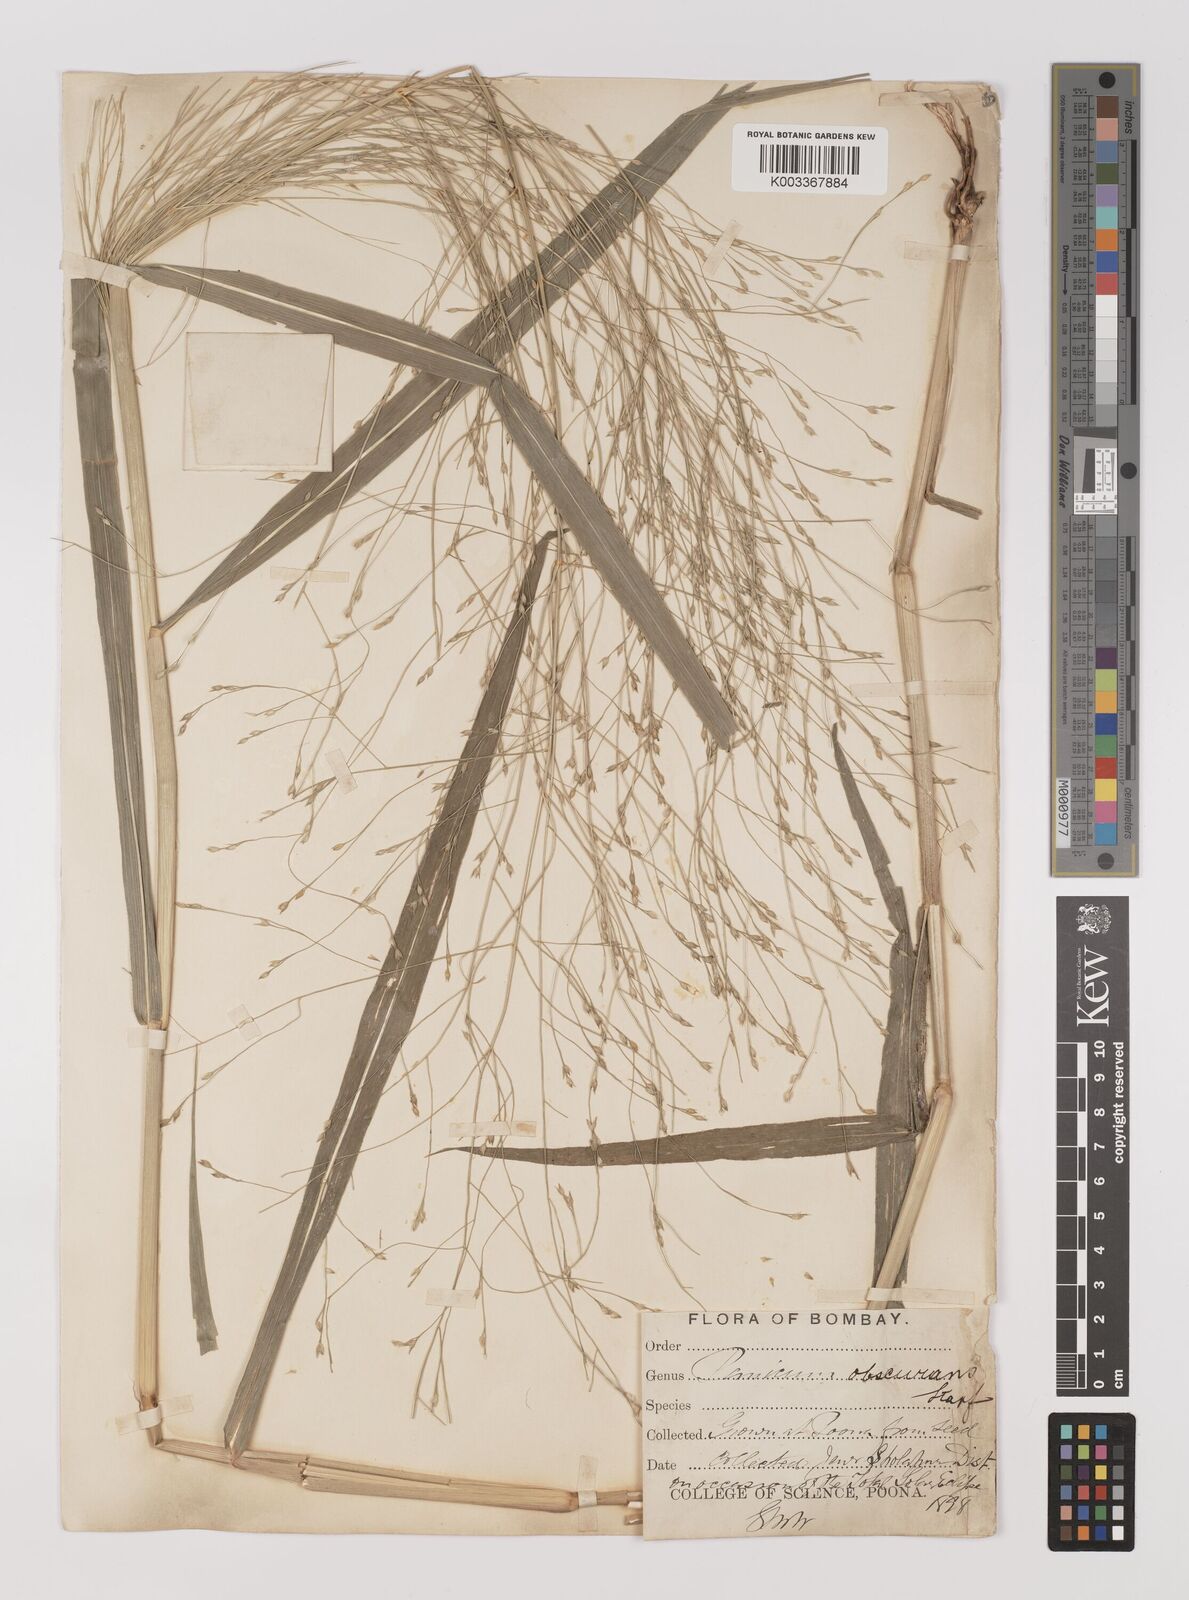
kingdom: Plantae
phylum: Tracheophyta
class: Liliopsida
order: Poales
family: Poaceae
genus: Panicum
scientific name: Panicum hippothrix
